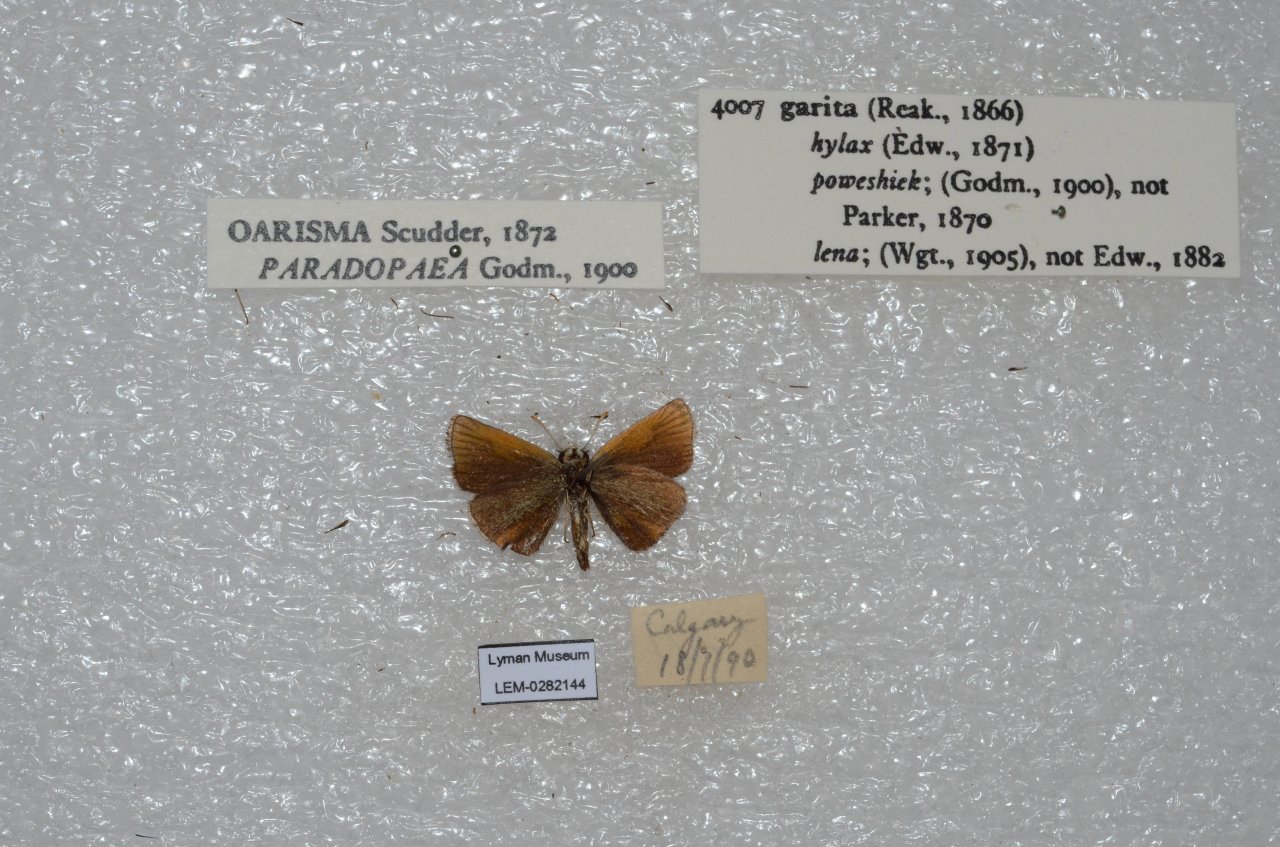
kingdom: Animalia
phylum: Arthropoda
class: Insecta
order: Lepidoptera
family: Hesperiidae
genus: Oarisma
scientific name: Oarisma garita
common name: Garita Skipperling
